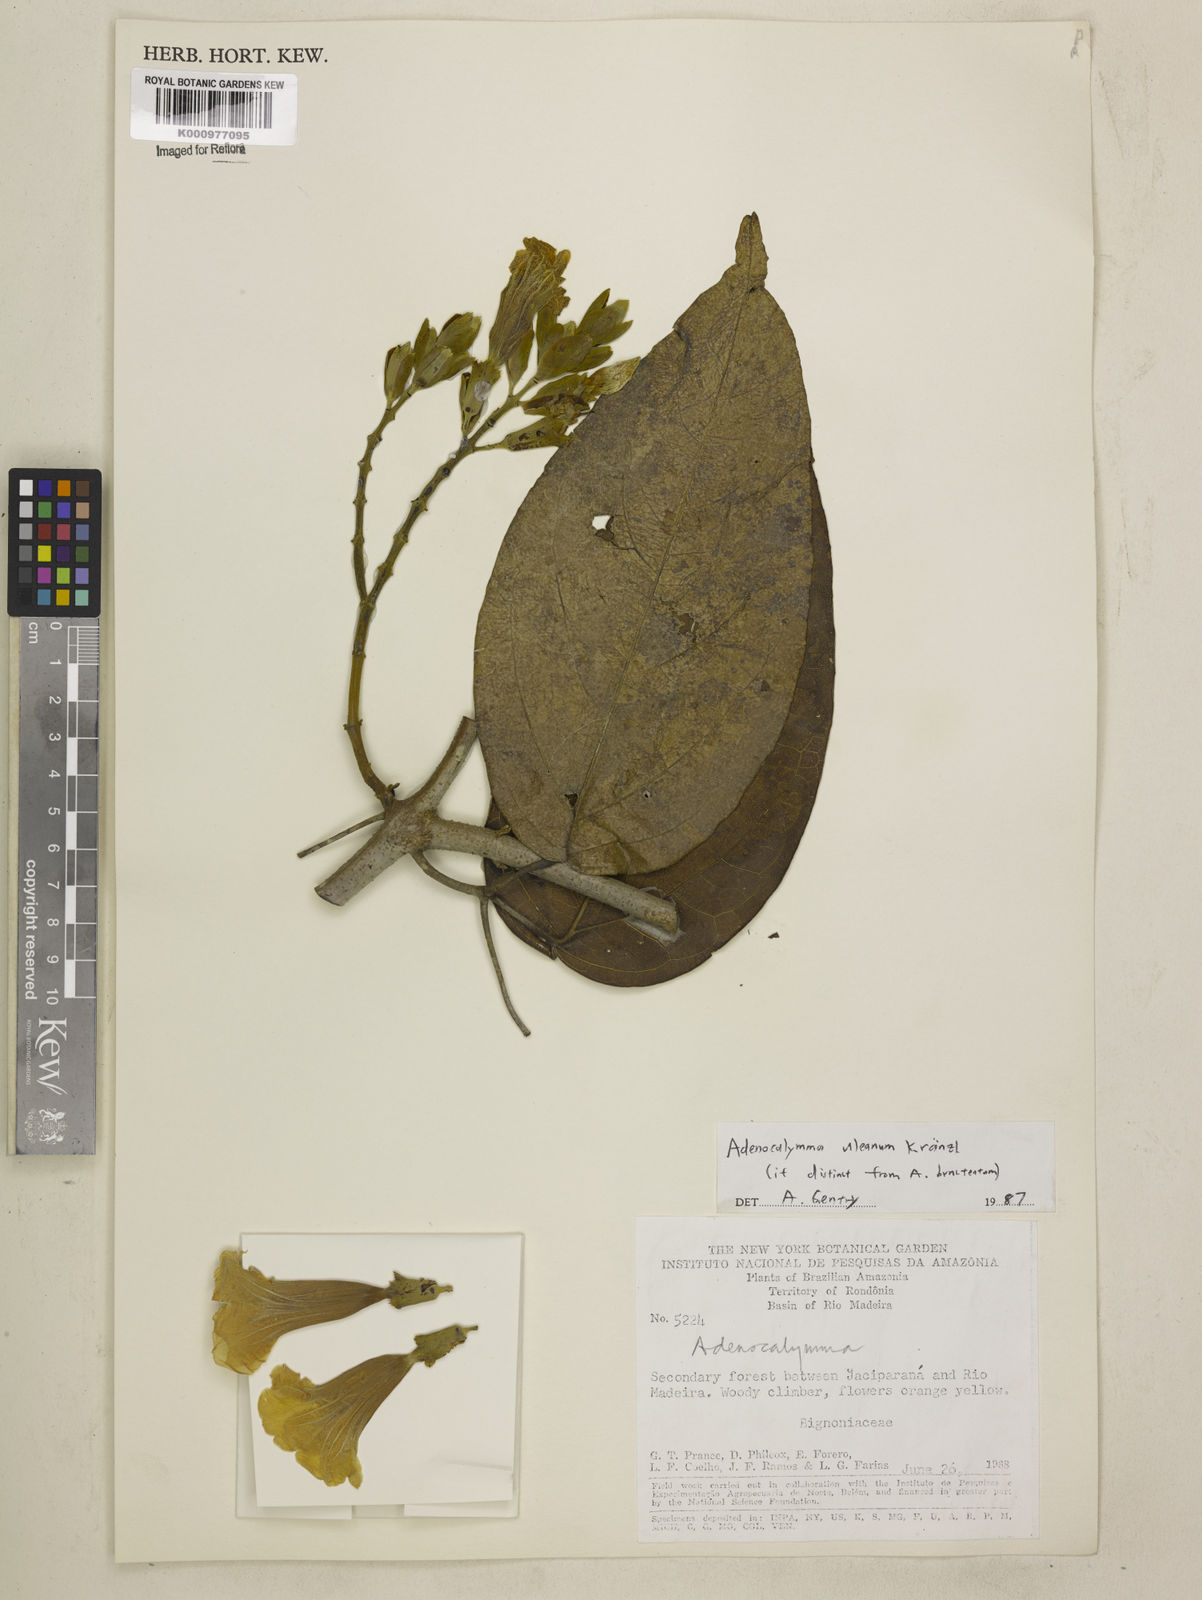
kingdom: Plantae
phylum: Tracheophyta
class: Magnoliopsida
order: Lamiales
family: Bignoniaceae
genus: Adenocalymma
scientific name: Adenocalymma uleanum
